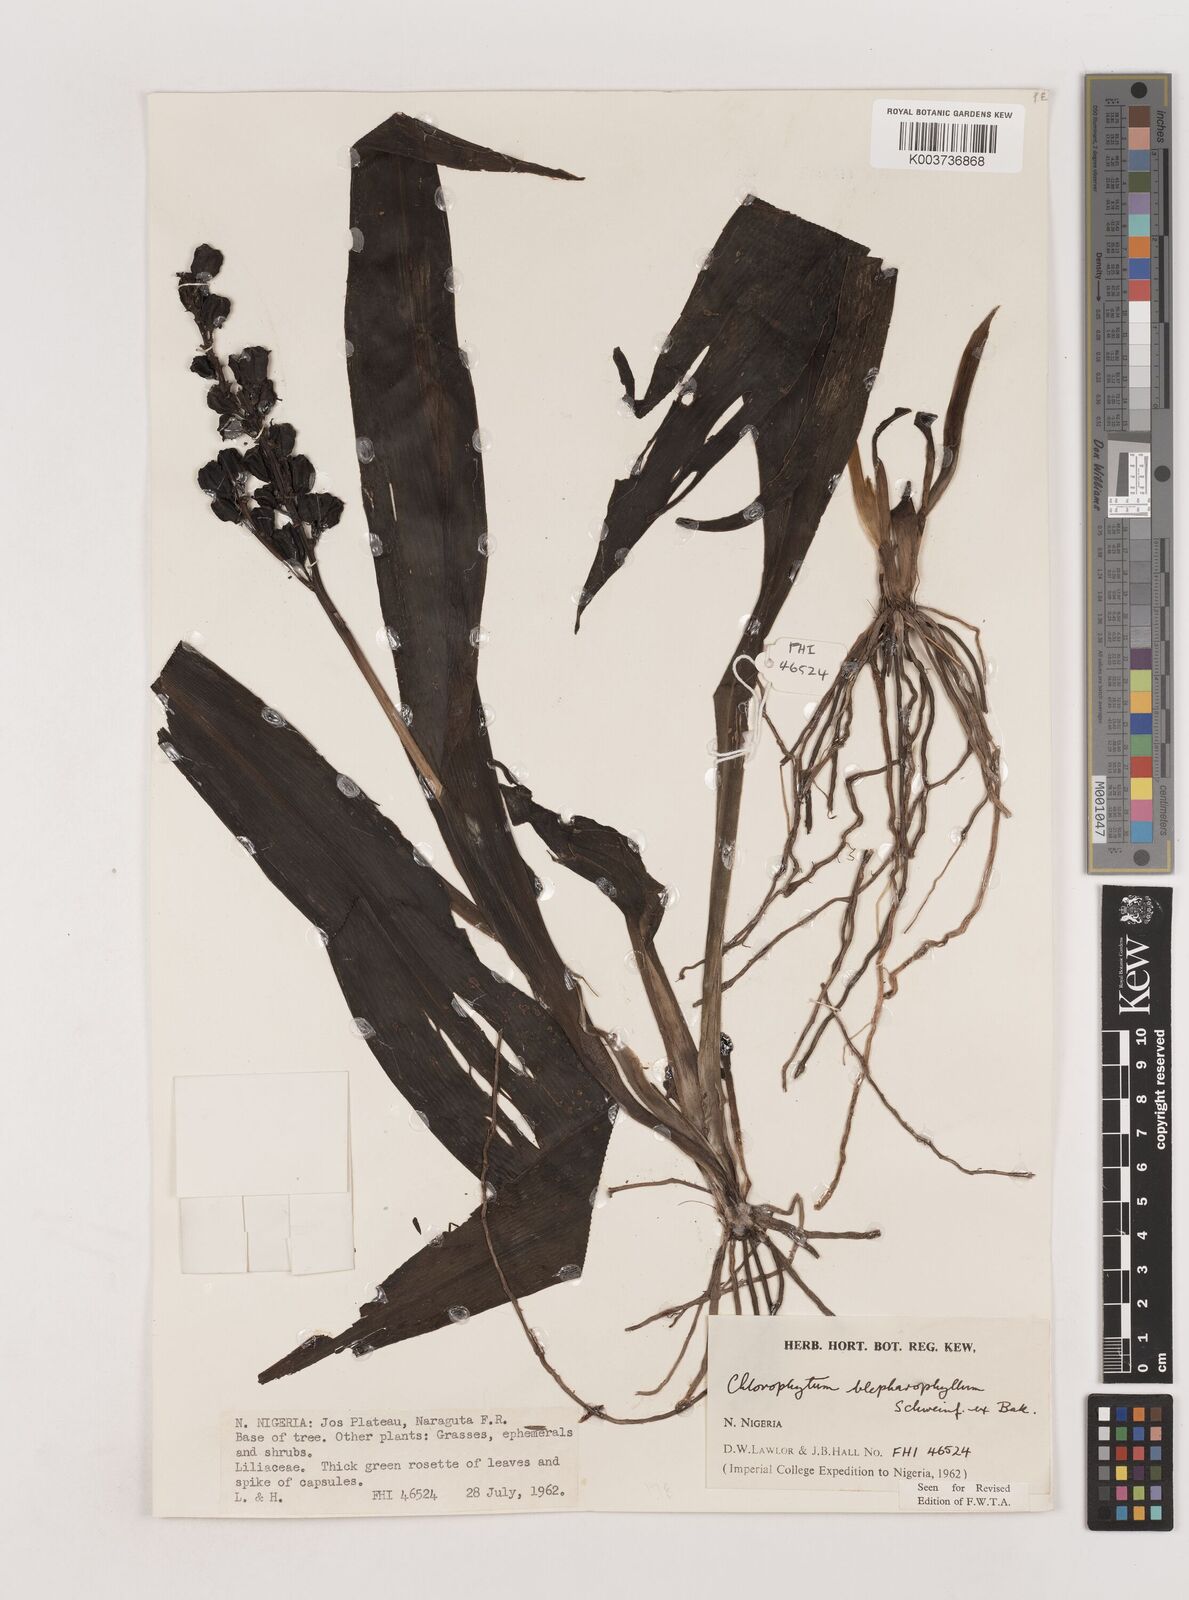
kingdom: Plantae
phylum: Tracheophyta
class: Liliopsida
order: Asparagales
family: Asparagaceae
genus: Chlorophytum
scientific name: Chlorophytum blepharophyllum
